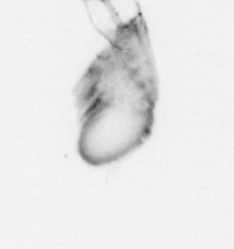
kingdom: Animalia
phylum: Arthropoda
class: Copepoda
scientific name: Copepoda
